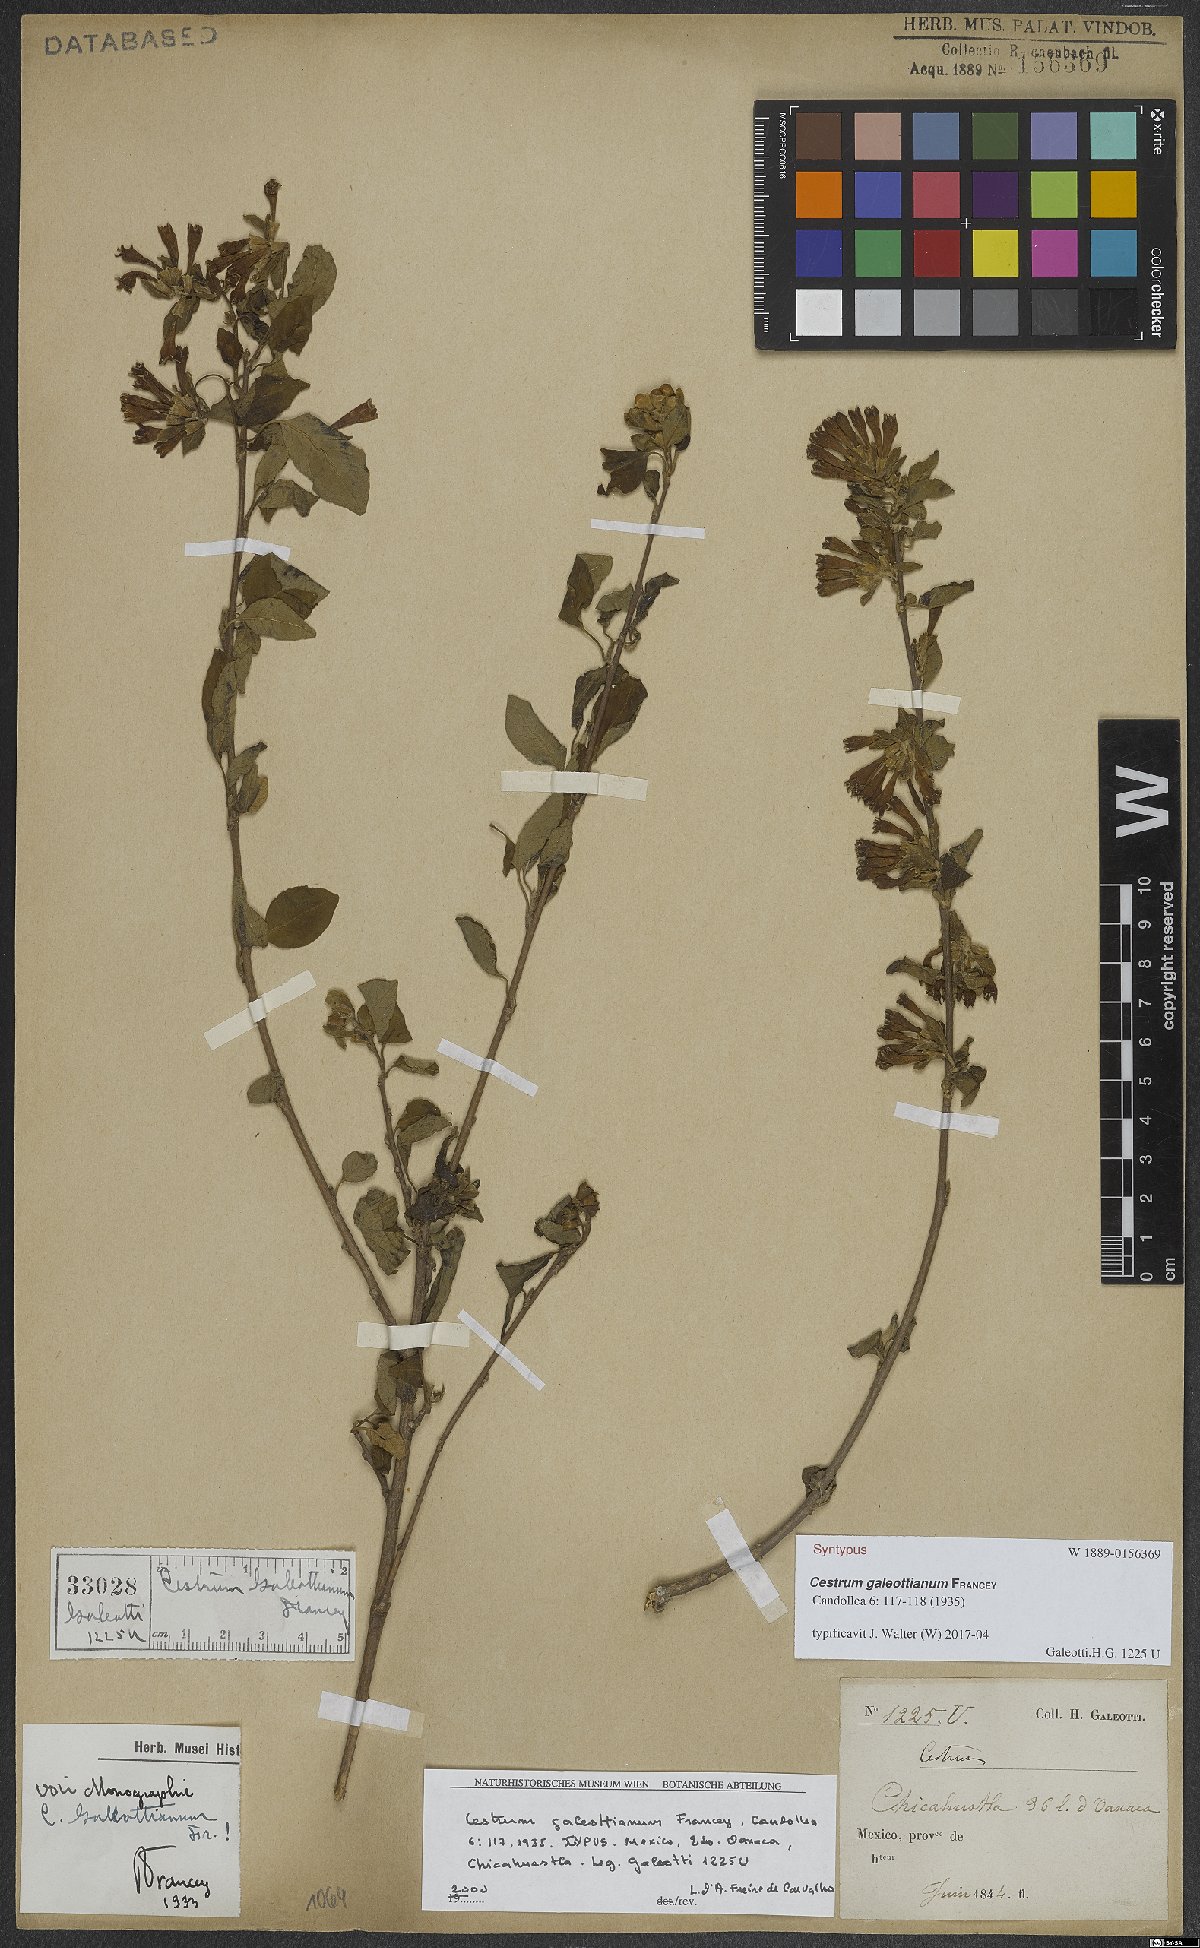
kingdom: Plantae
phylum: Tracheophyta
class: Magnoliopsida
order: Solanales
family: Solanaceae
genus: Cestrum
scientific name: Cestrum galeottianum
